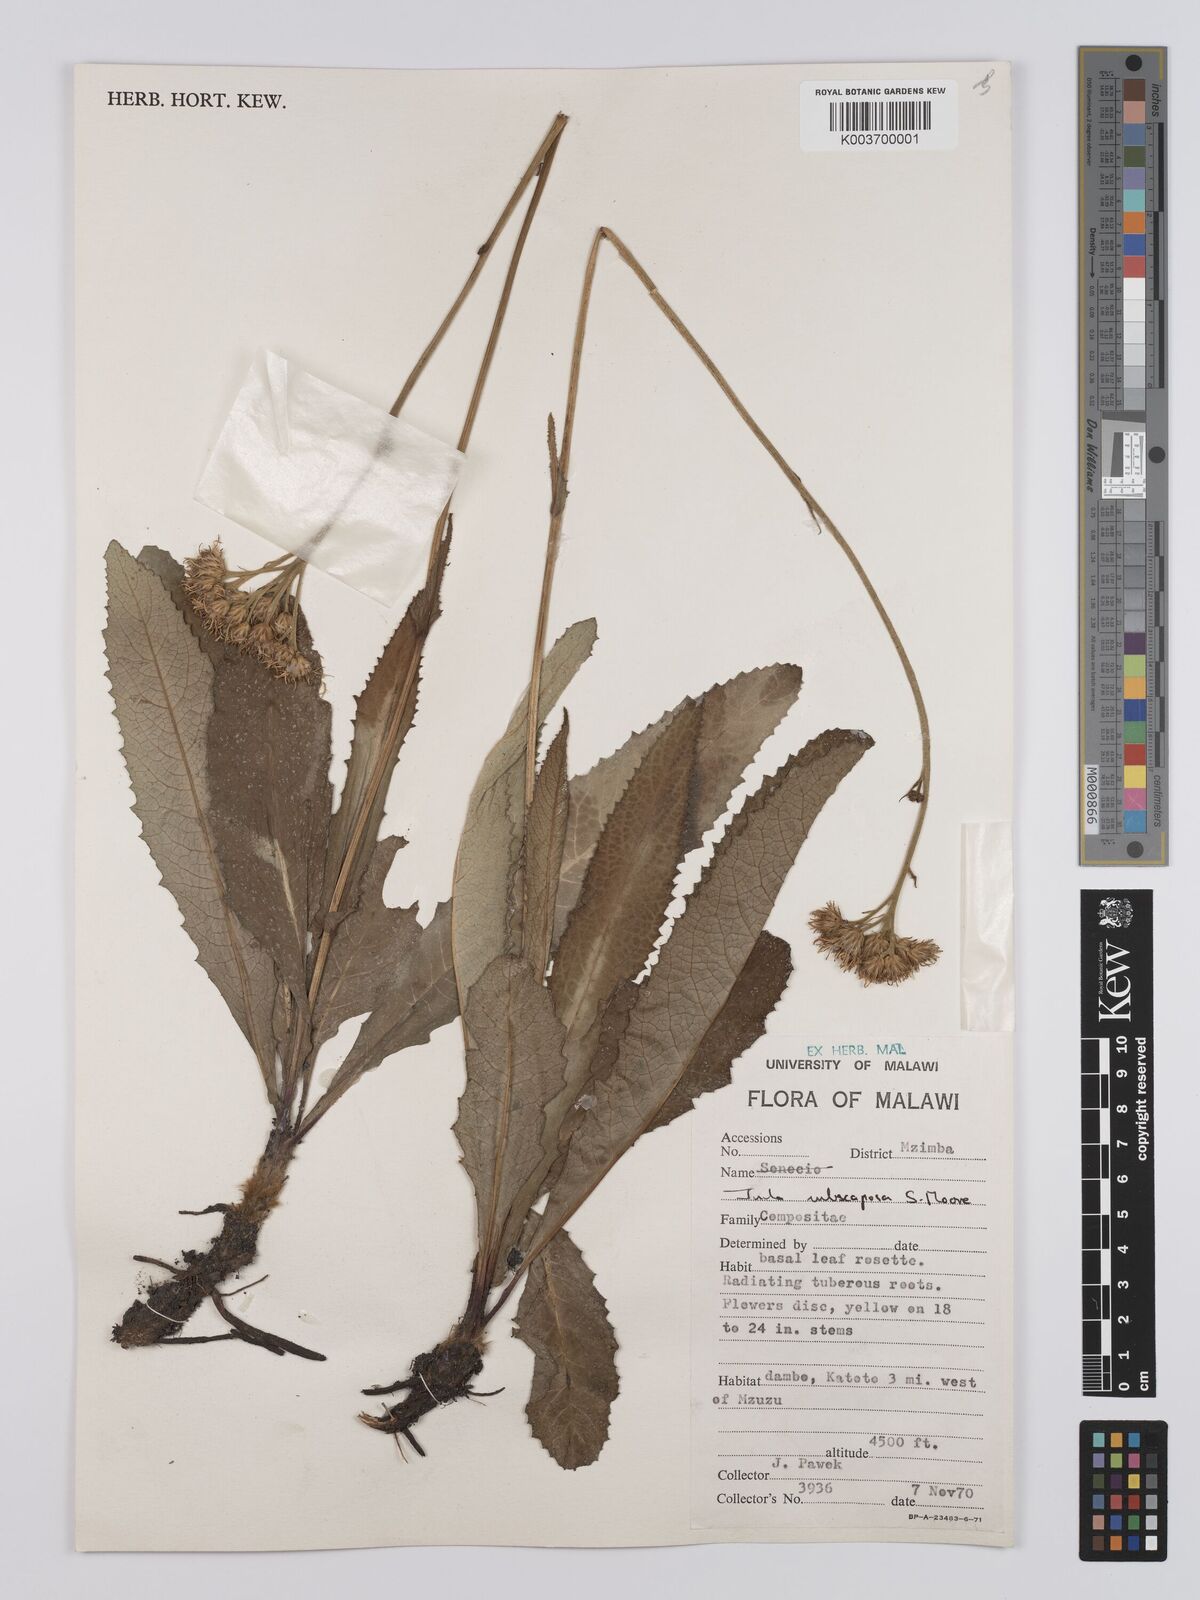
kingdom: Plantae
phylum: Tracheophyta
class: Magnoliopsida
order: Asterales
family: Asteraceae
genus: Monactinocephalus
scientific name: Monactinocephalus paniculatus
